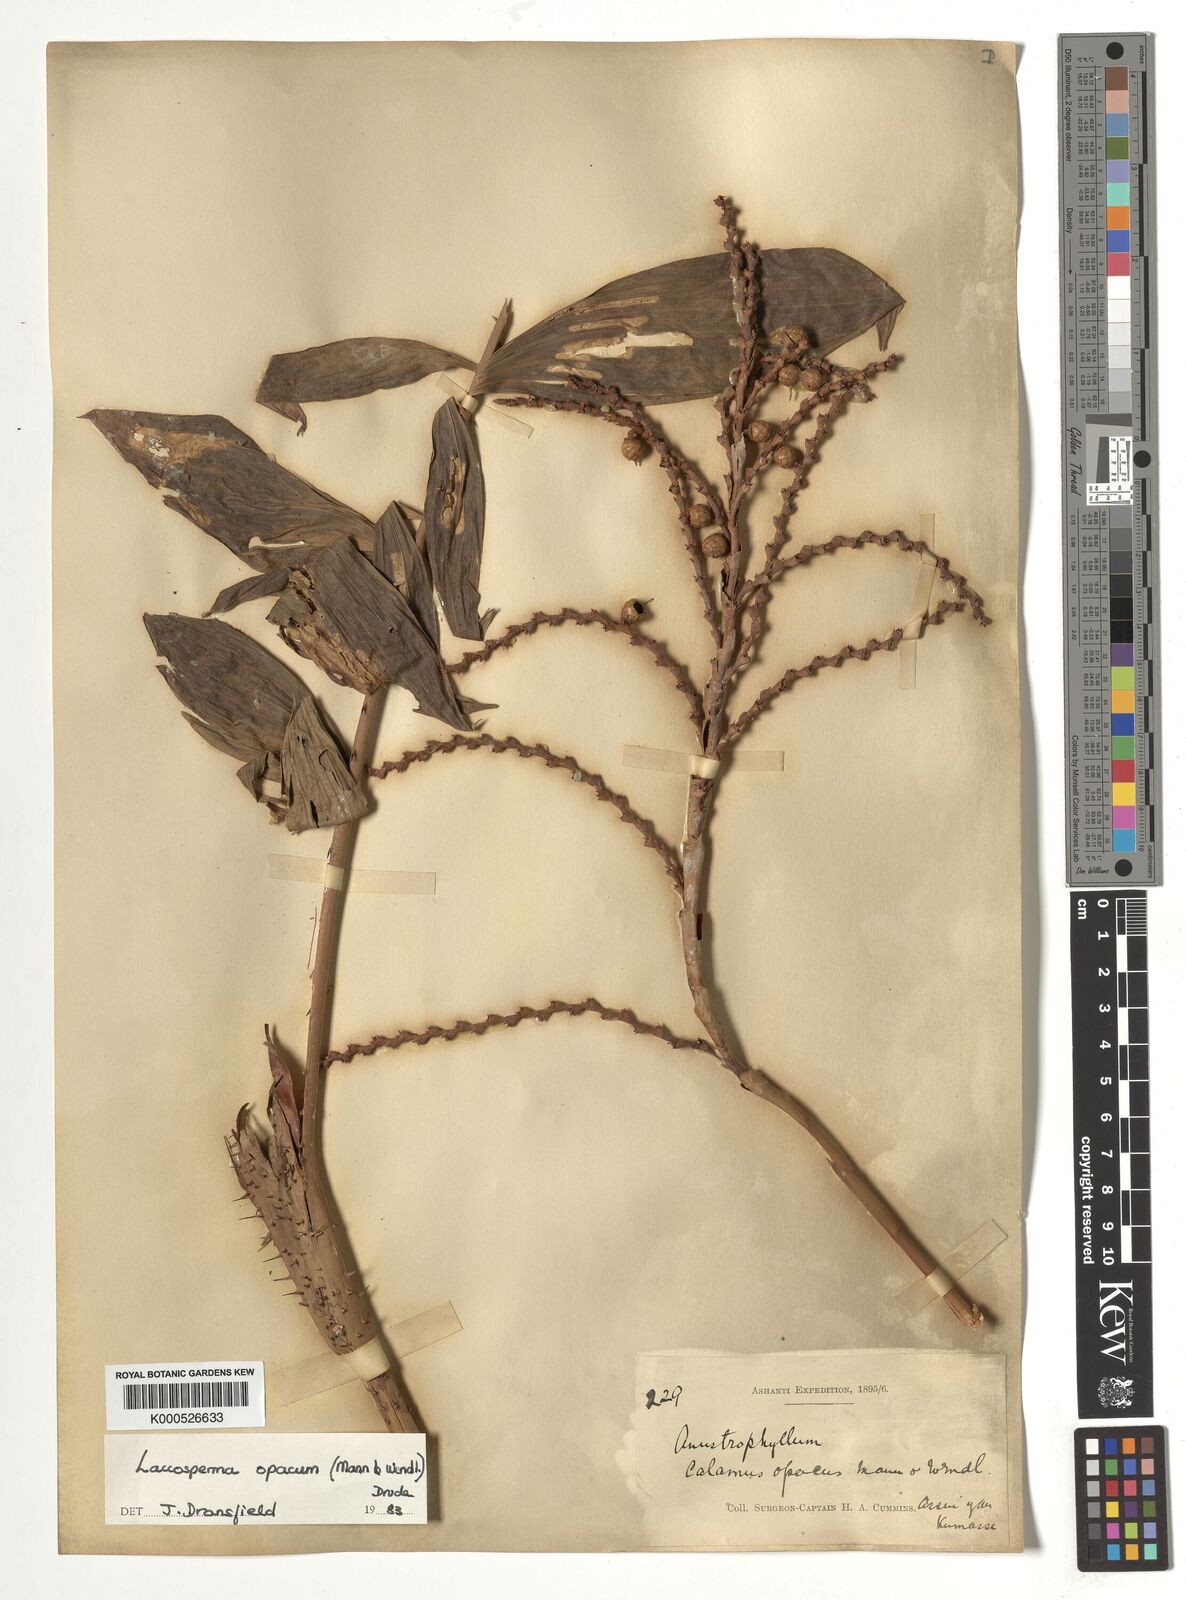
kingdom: Plantae
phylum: Tracheophyta
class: Liliopsida
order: Arecales
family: Arecaceae
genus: Laccosperma
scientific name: Laccosperma opacum
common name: Rattan
